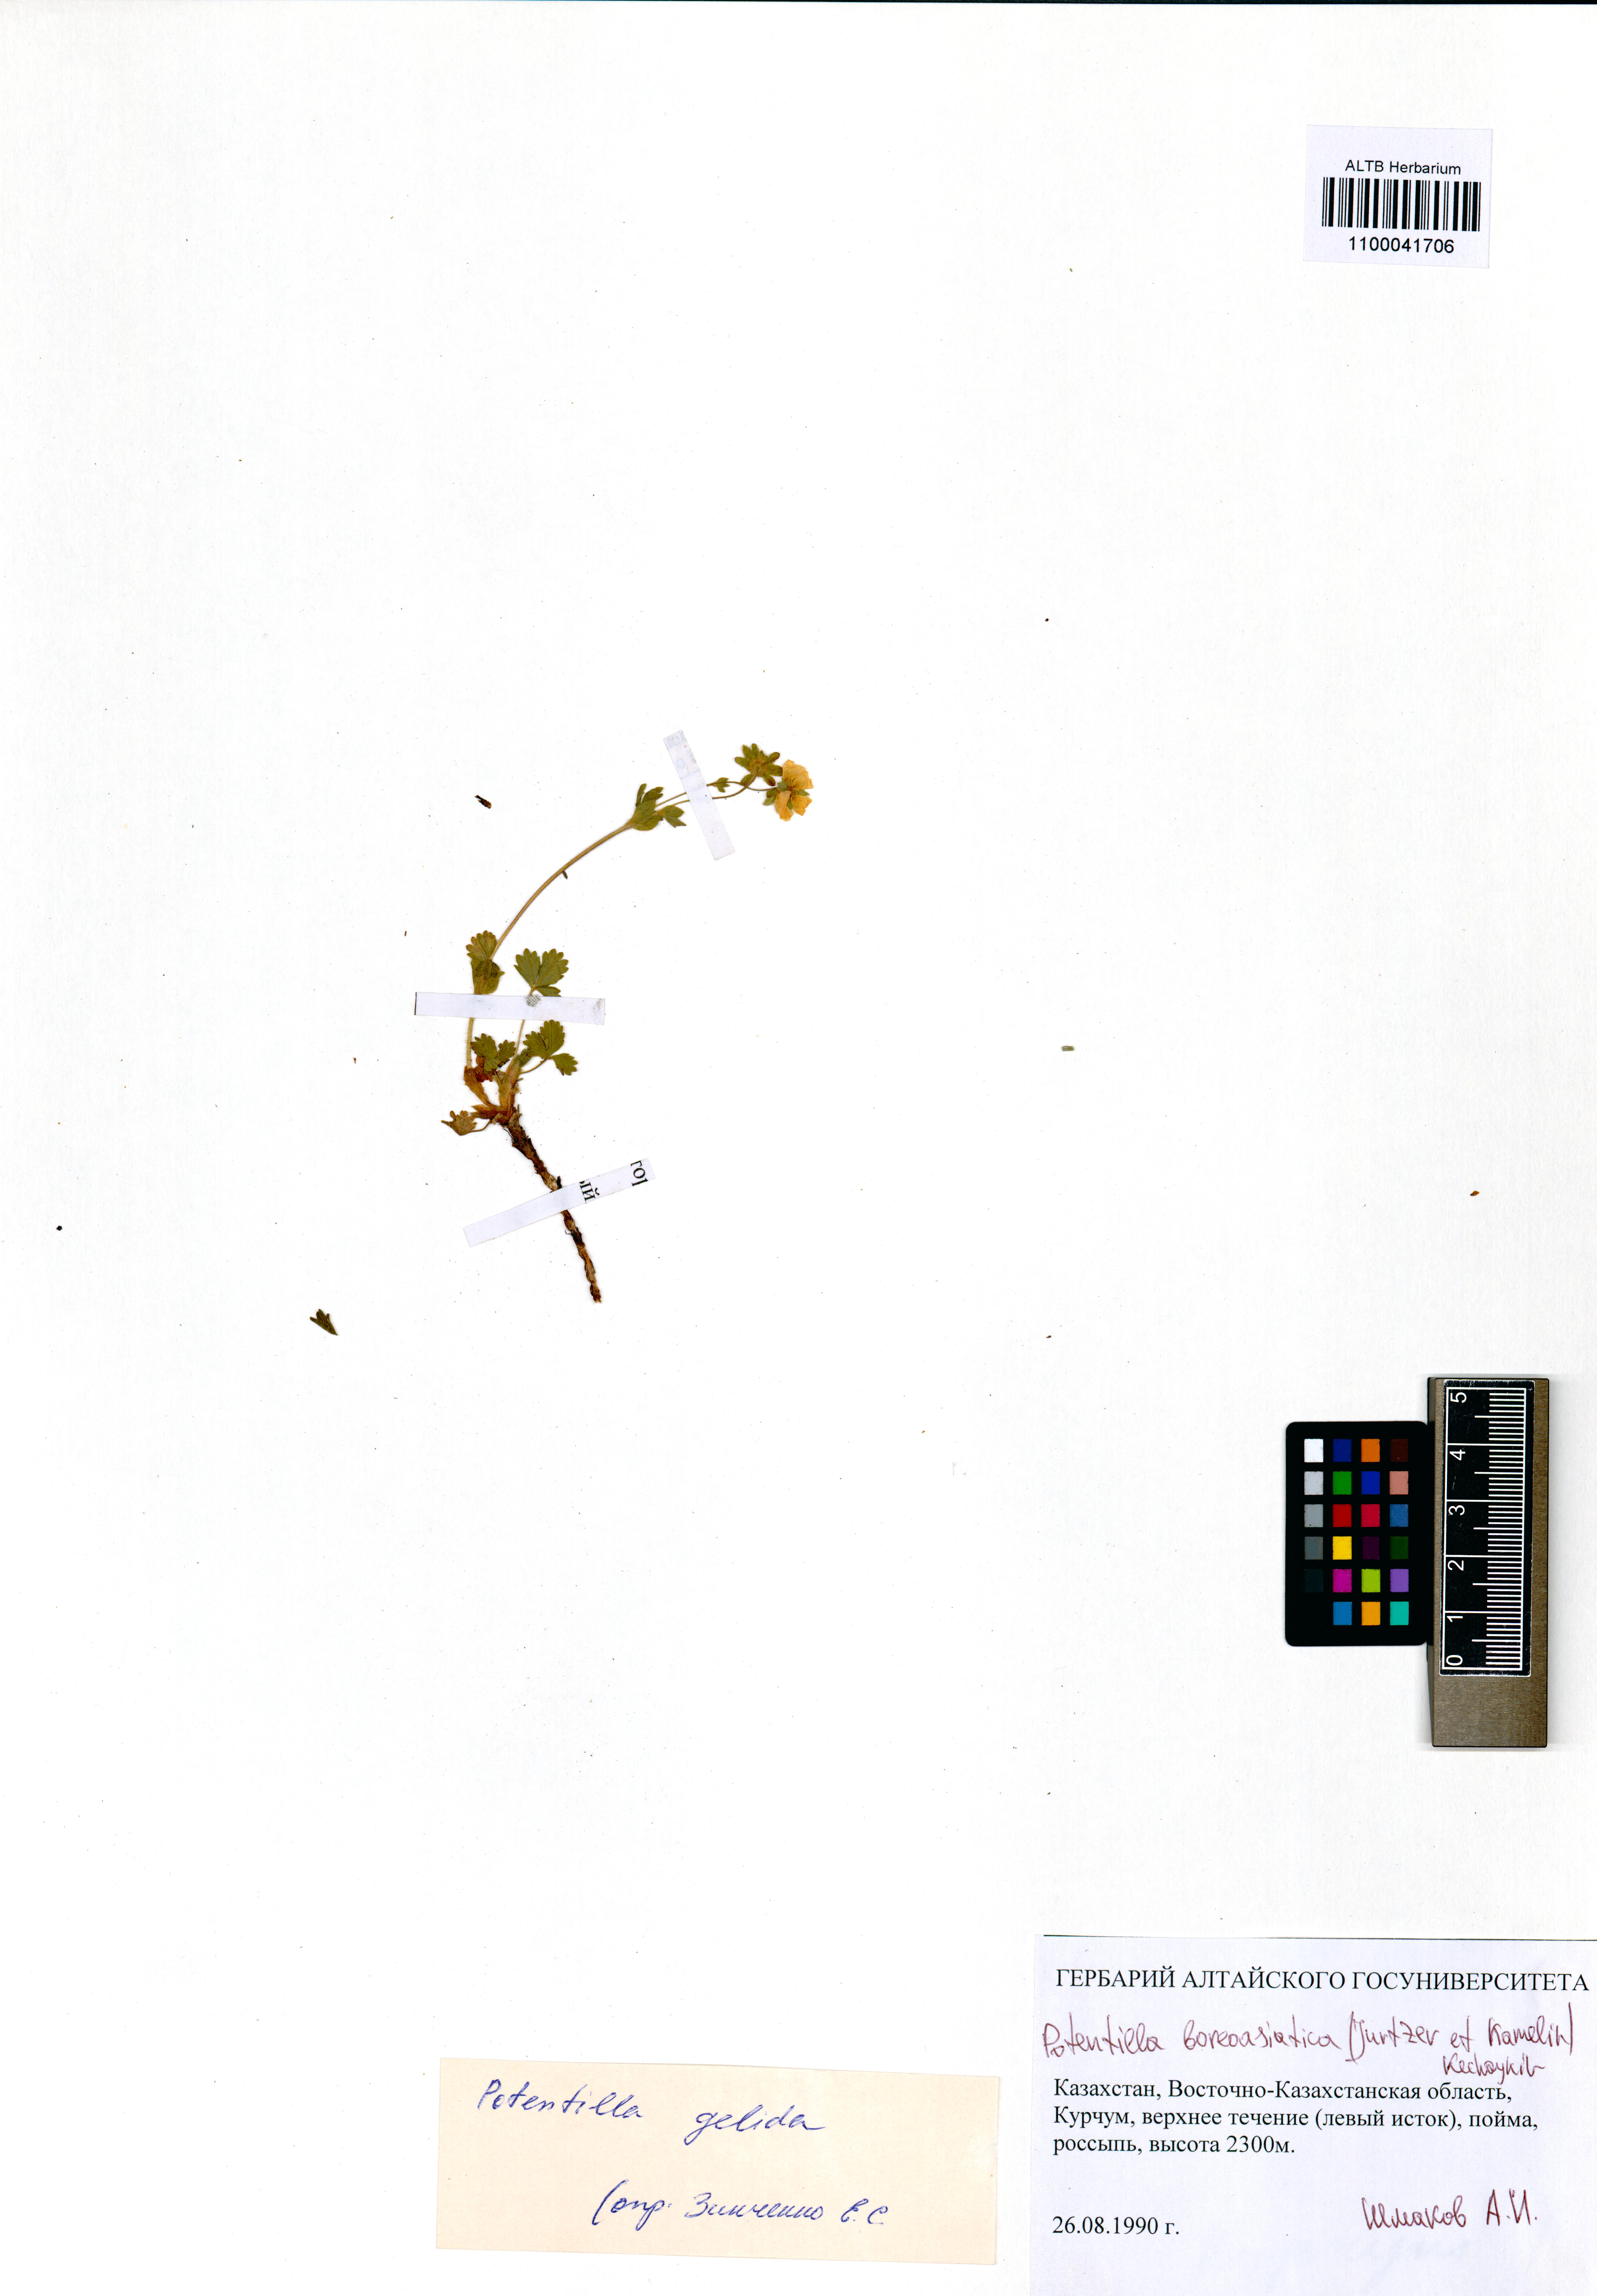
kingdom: Plantae
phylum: Tracheophyta
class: Magnoliopsida
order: Rosales
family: Rosaceae
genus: Potentilla
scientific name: Potentilla
